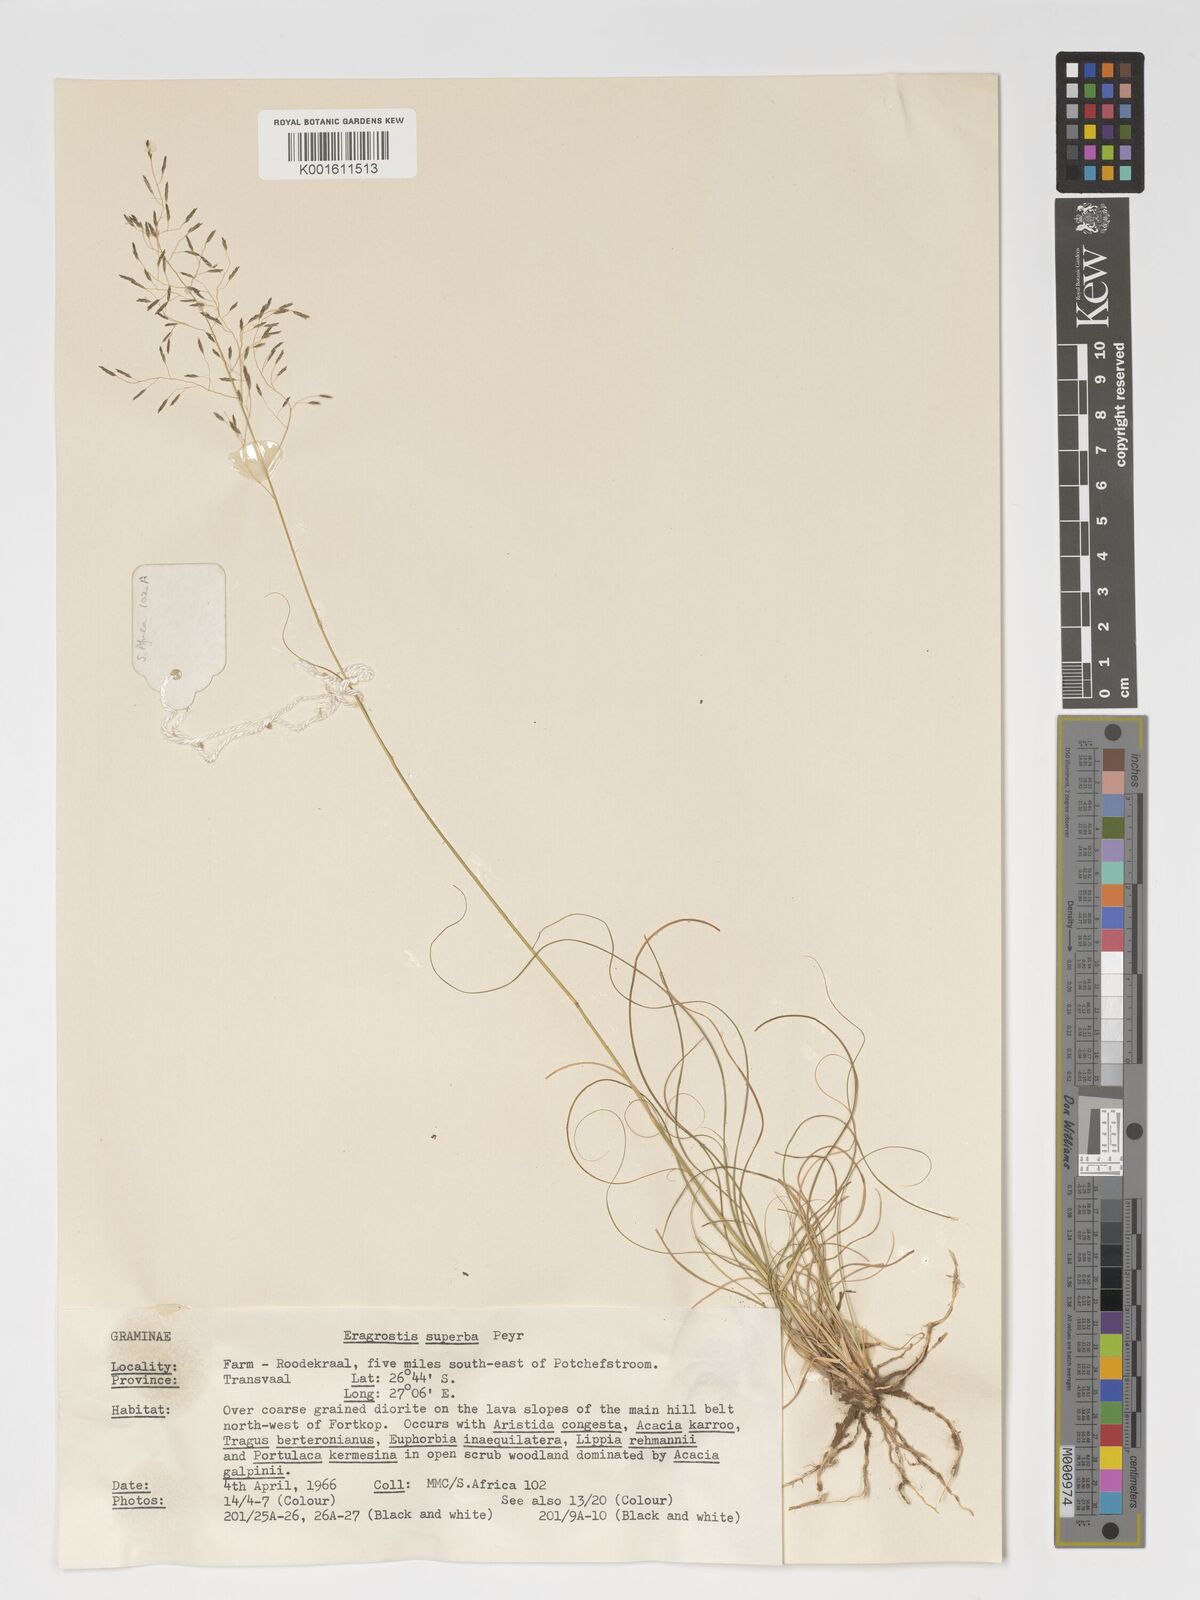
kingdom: Plantae
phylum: Tracheophyta
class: Liliopsida
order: Poales
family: Poaceae
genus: Eragrostis
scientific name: Eragrostis superba
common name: Wilman lovegrass
